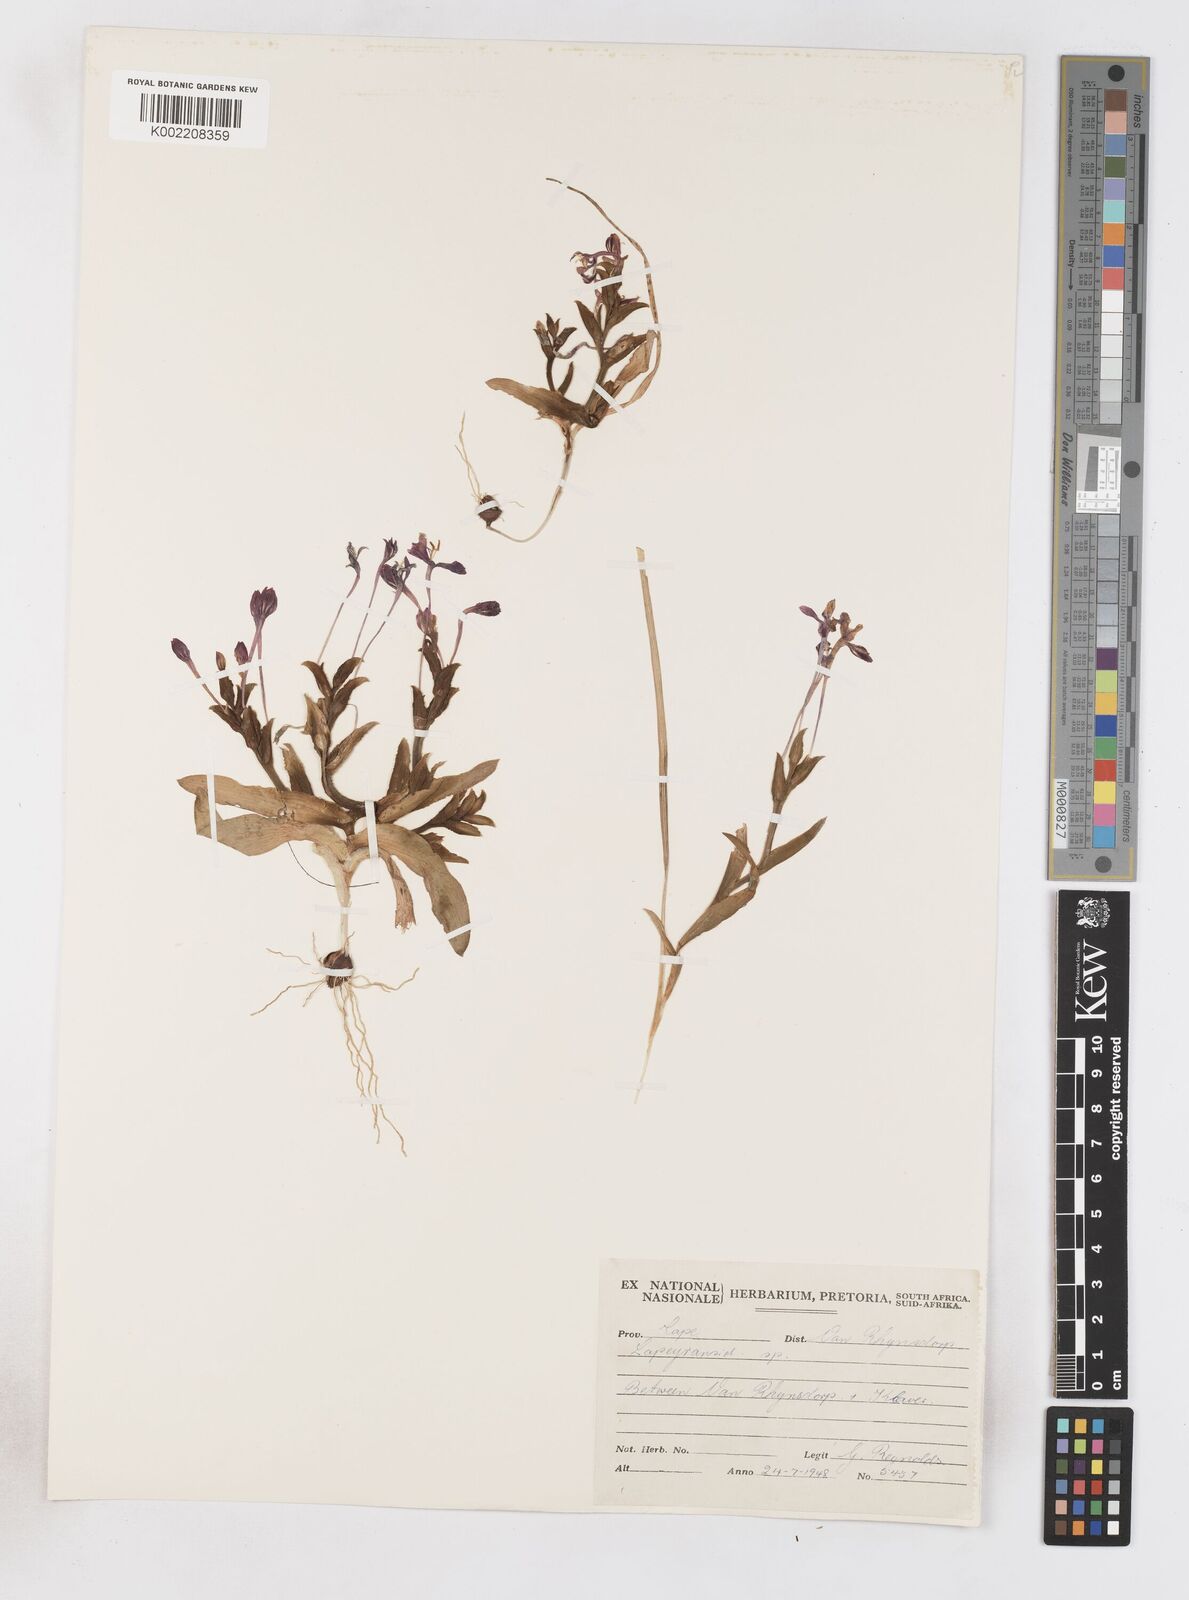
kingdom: Plantae
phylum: Tracheophyta
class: Liliopsida
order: Asparagales
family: Iridaceae
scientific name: Iridaceae
